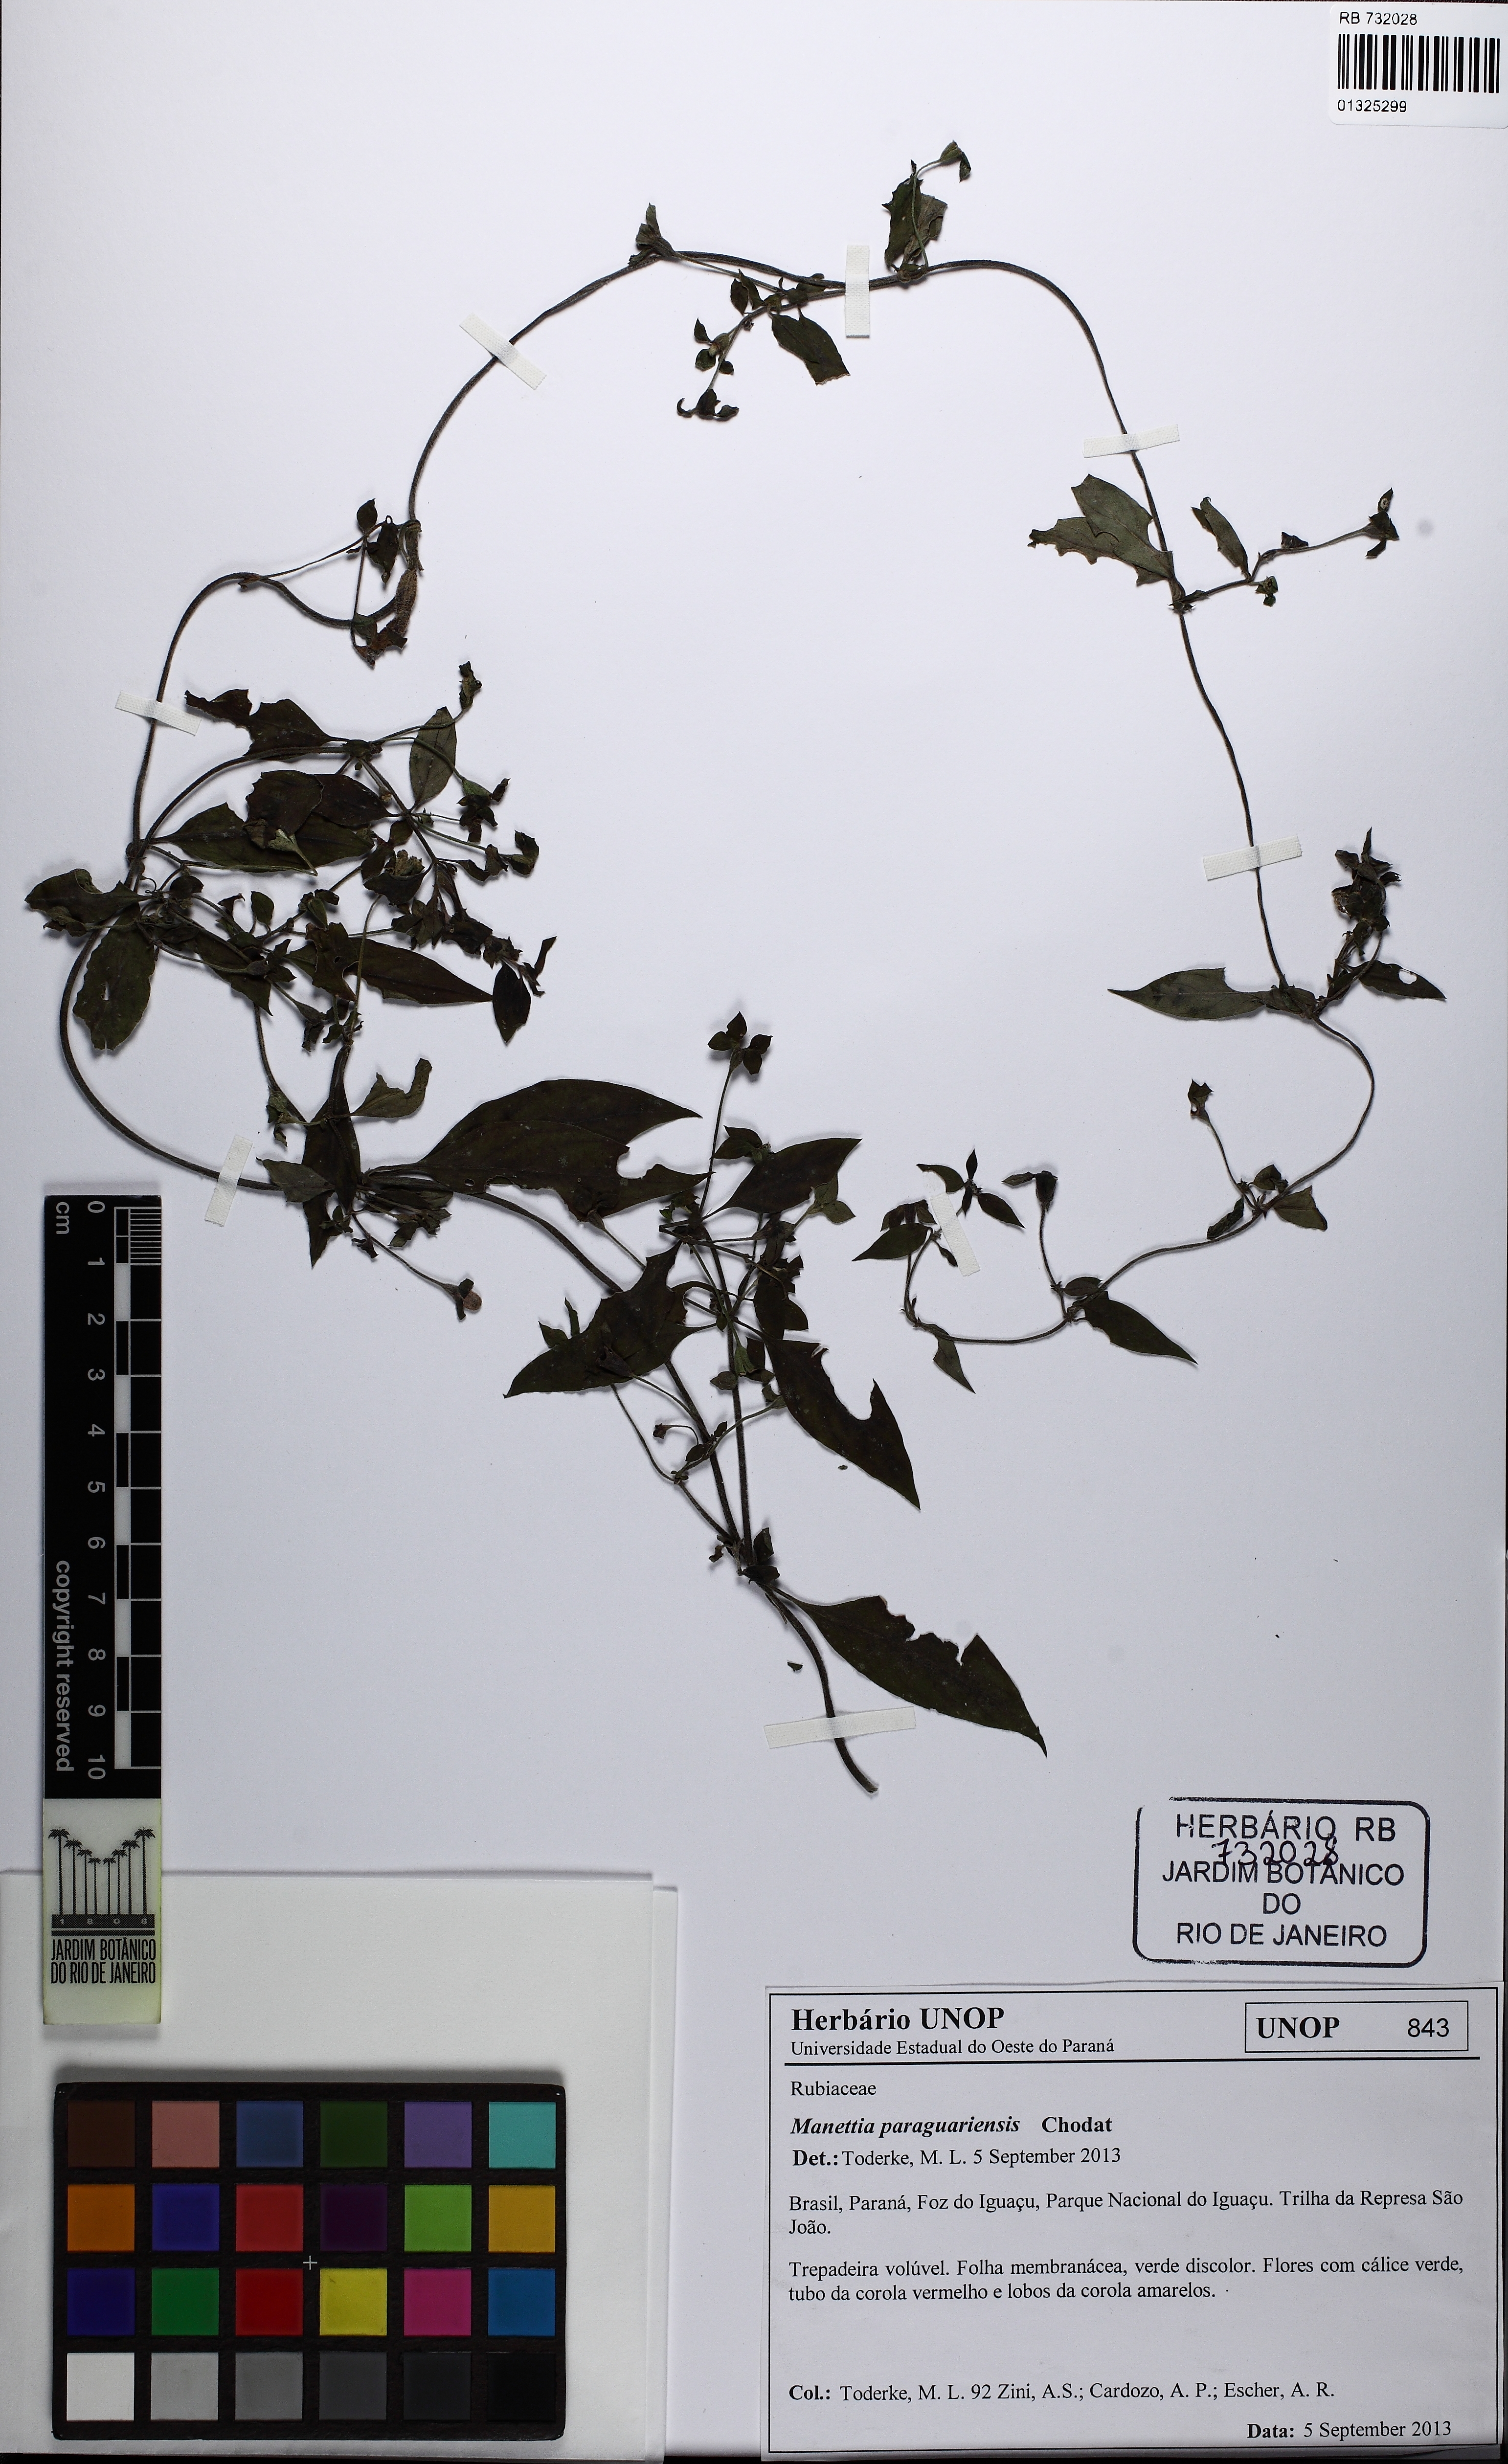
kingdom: Plantae
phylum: Tracheophyta
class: Magnoliopsida
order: Gentianales
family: Rubiaceae
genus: Manettia
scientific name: Manettia paraguariensis
